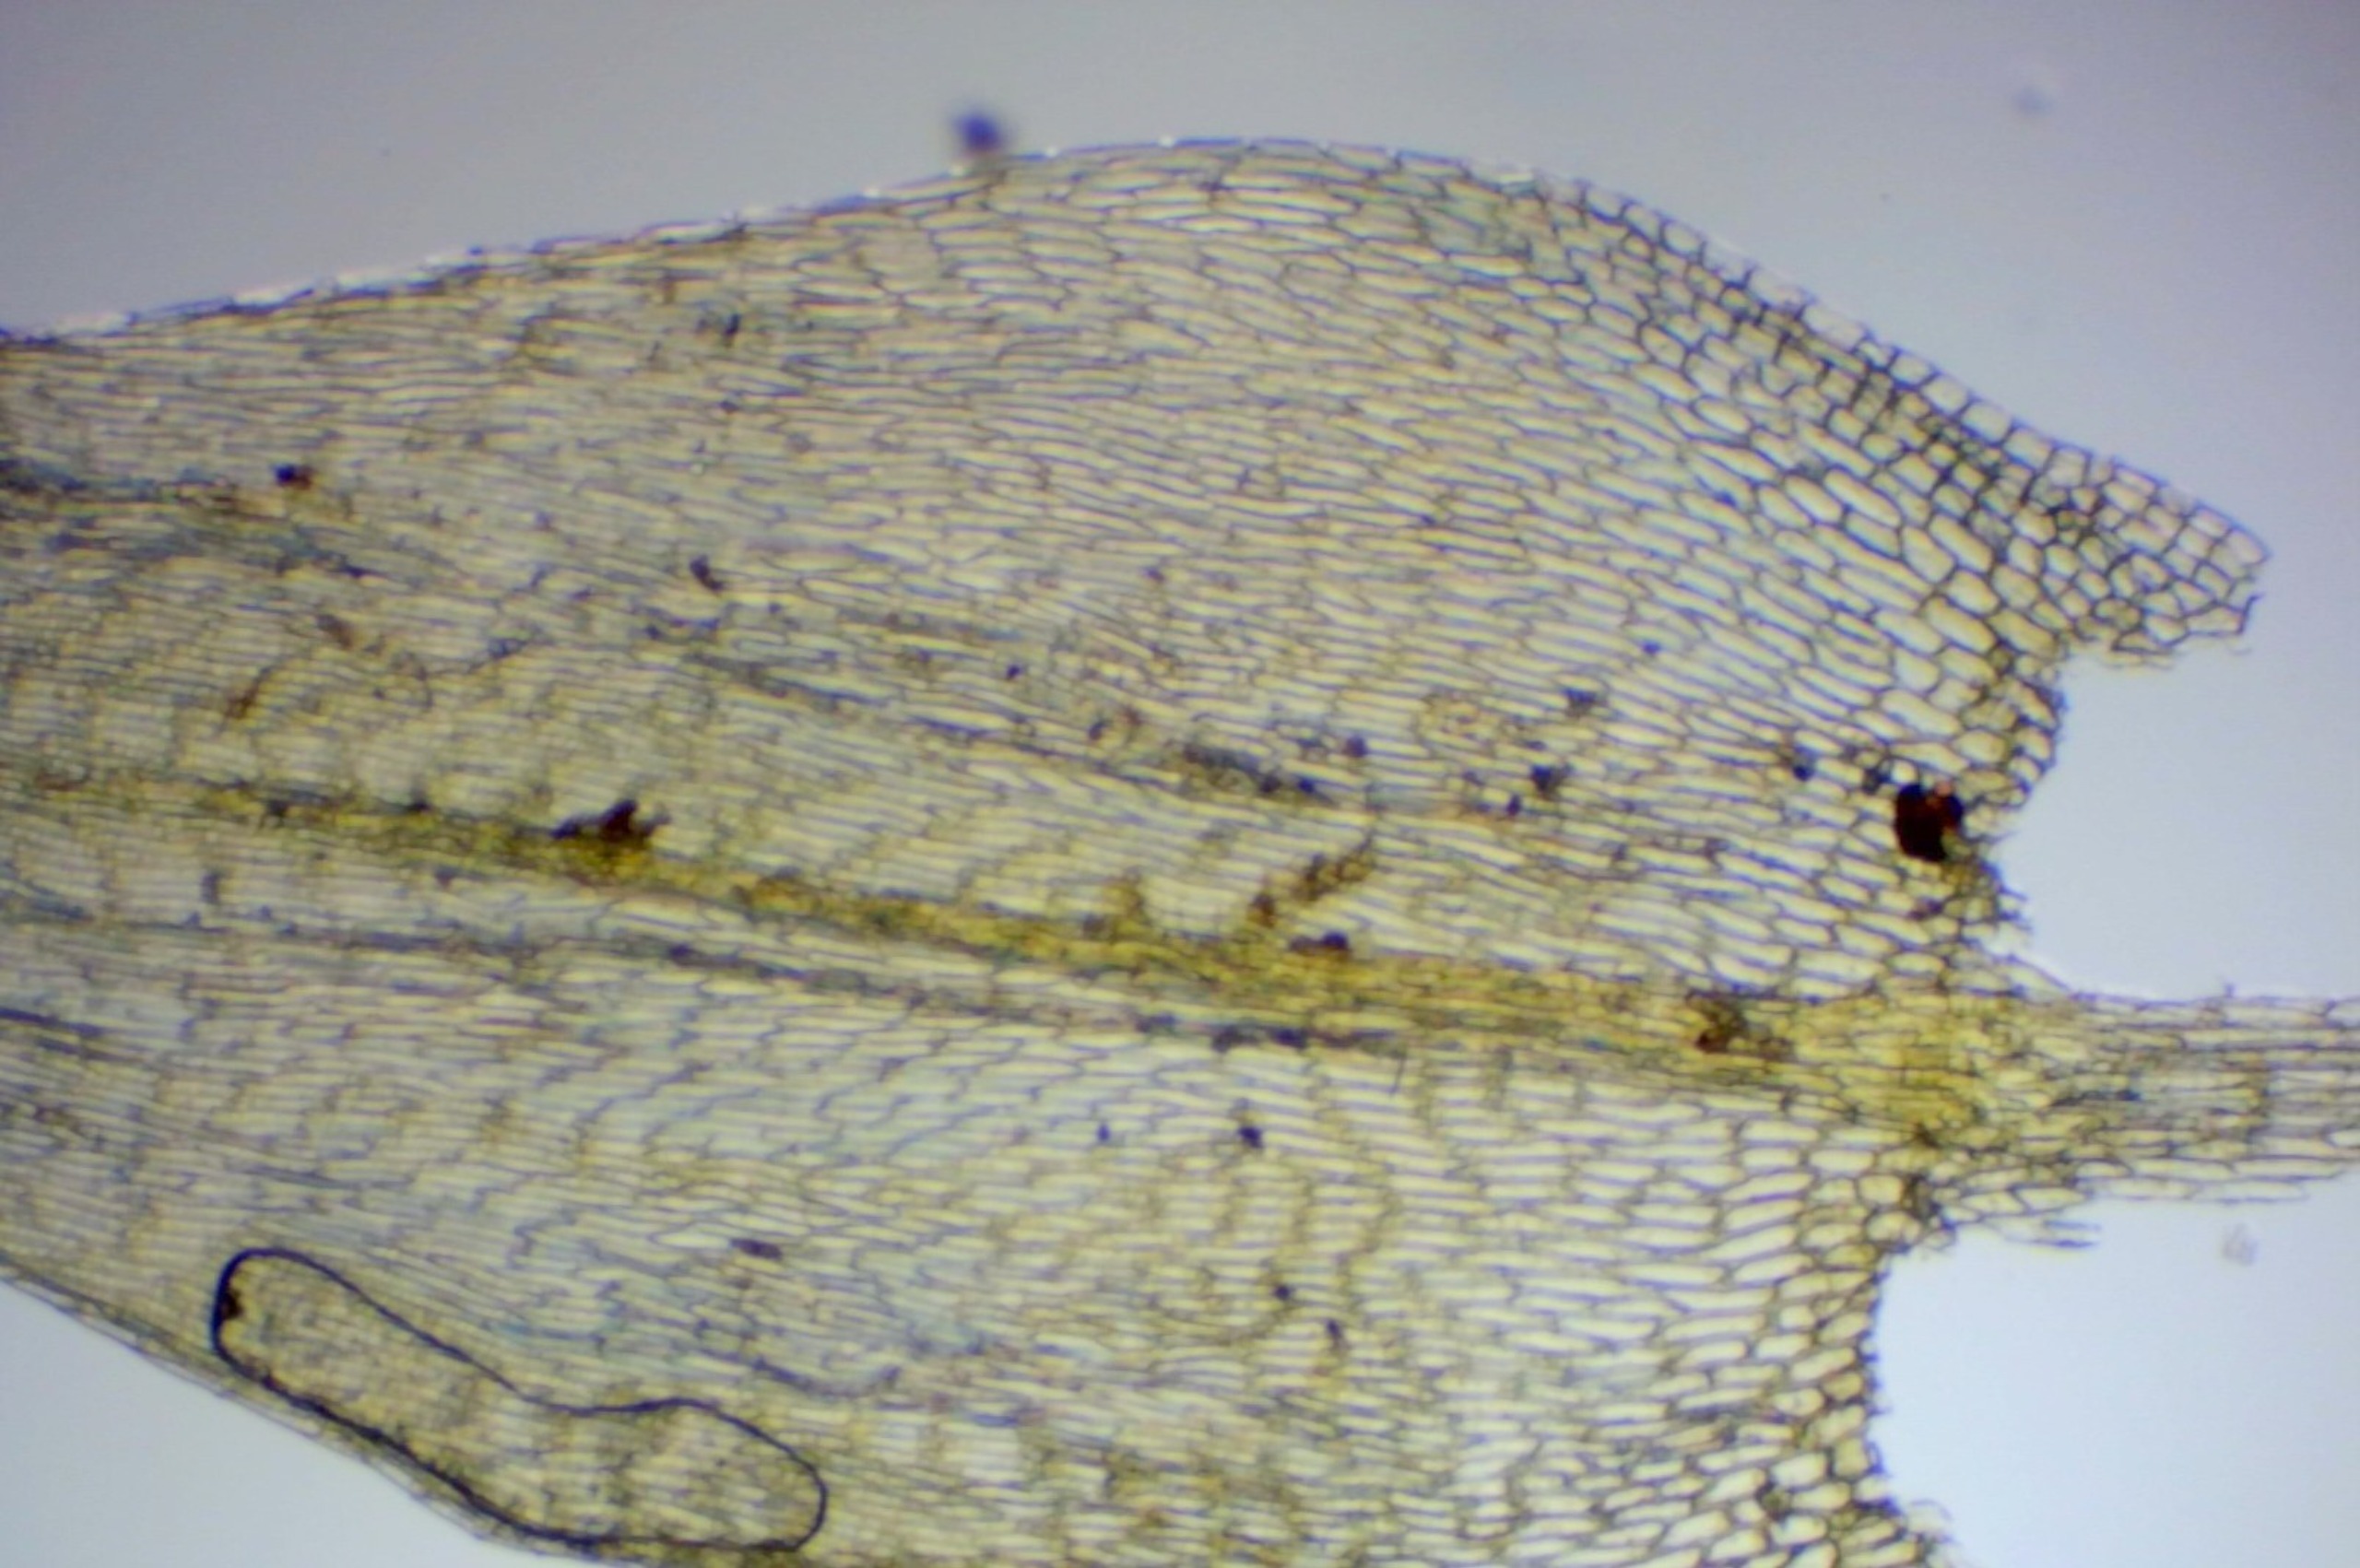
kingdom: Plantae
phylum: Bryophyta
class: Bryopsida
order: Hypnales
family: Brachytheciaceae
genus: Brachythecium
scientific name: Brachythecium albicans
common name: Hvidlig kortkapsel
